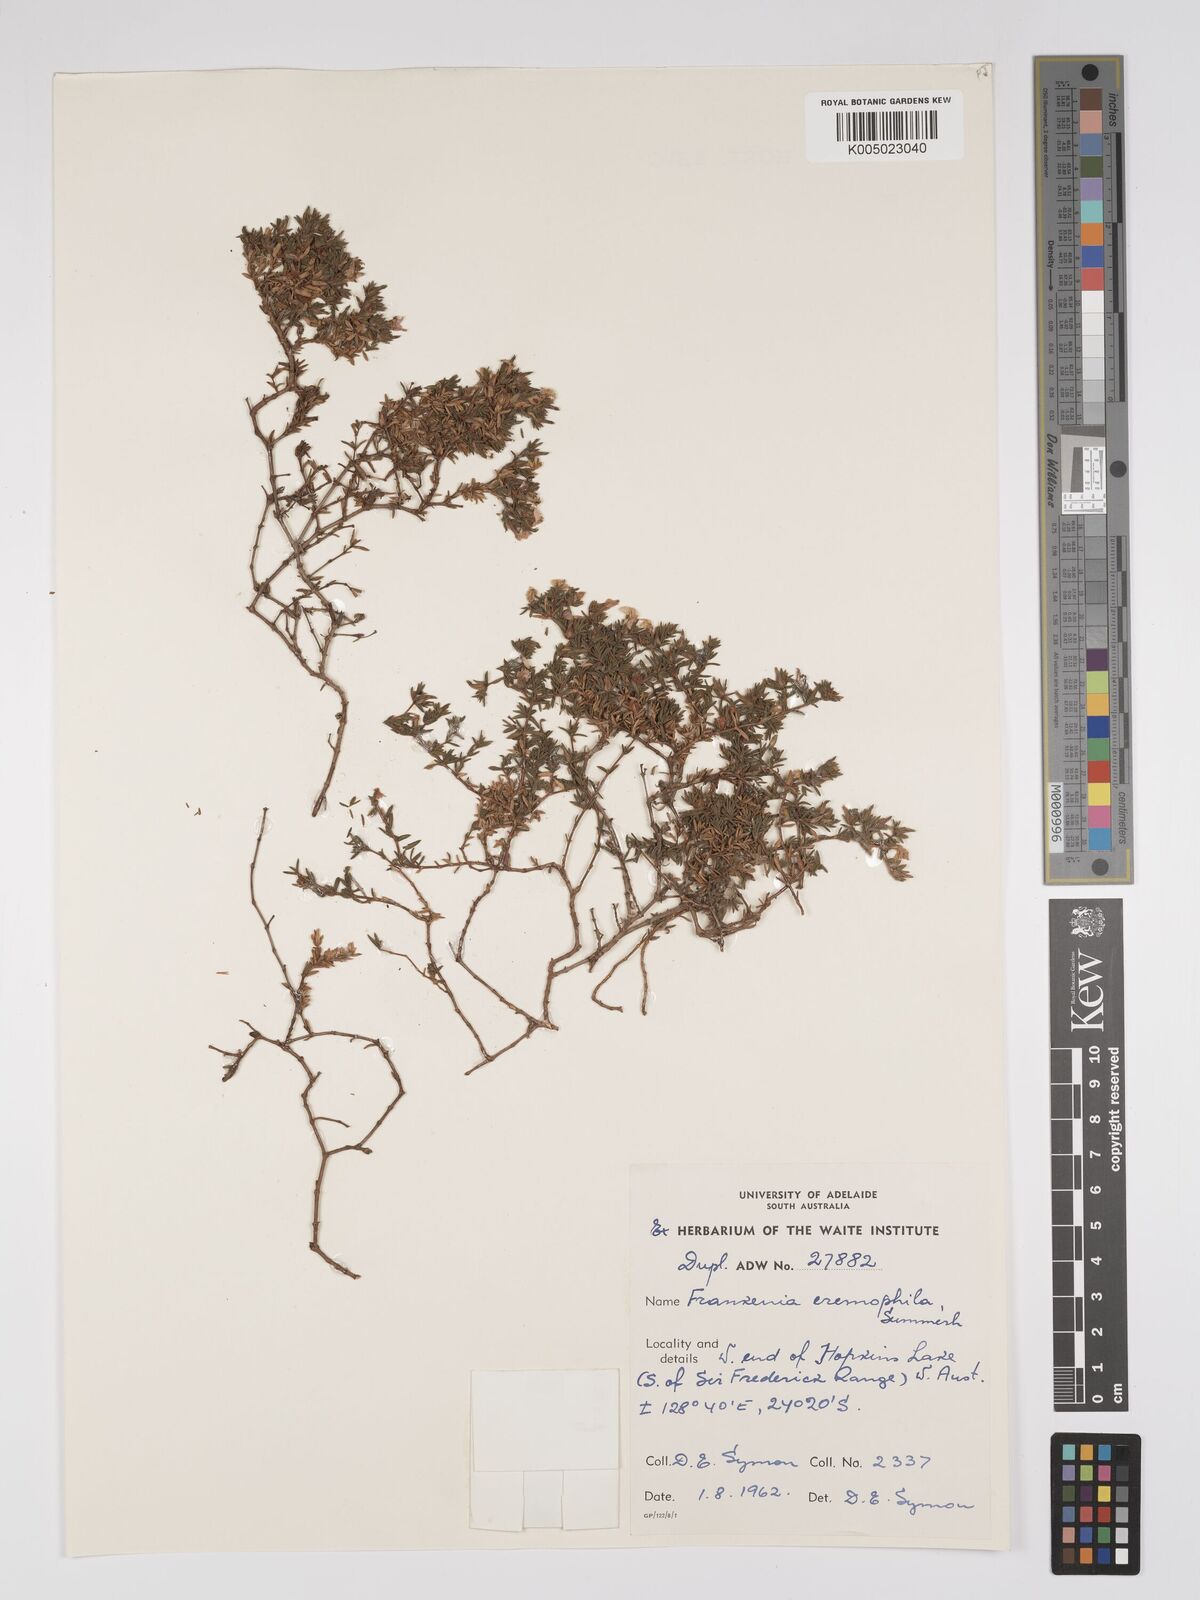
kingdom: Plantae
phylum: Tracheophyta
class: Magnoliopsida
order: Caryophyllales
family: Frankeniaceae
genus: Frankenia
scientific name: Frankenia eremophila
